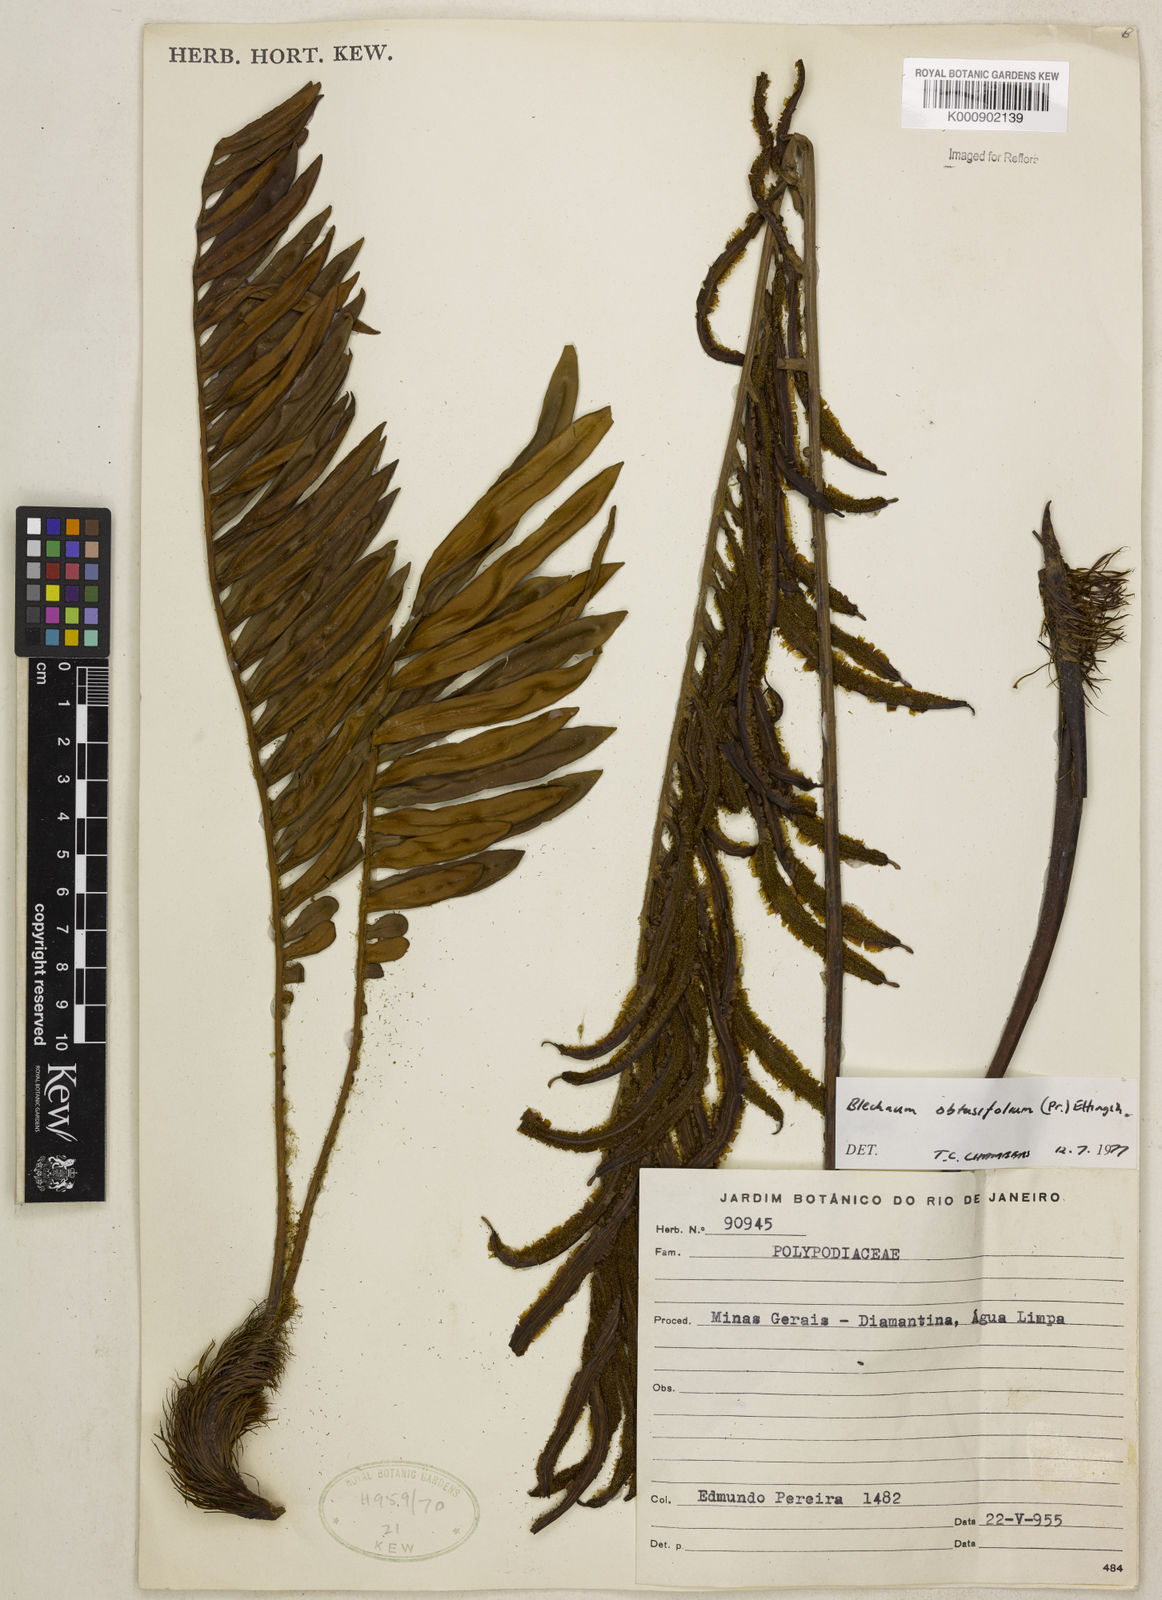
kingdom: Plantae
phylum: Tracheophyta
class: Polypodiopsida
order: Polypodiales
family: Blechnaceae
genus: Lomariocycas
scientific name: Lomariocycas obtusifolia
